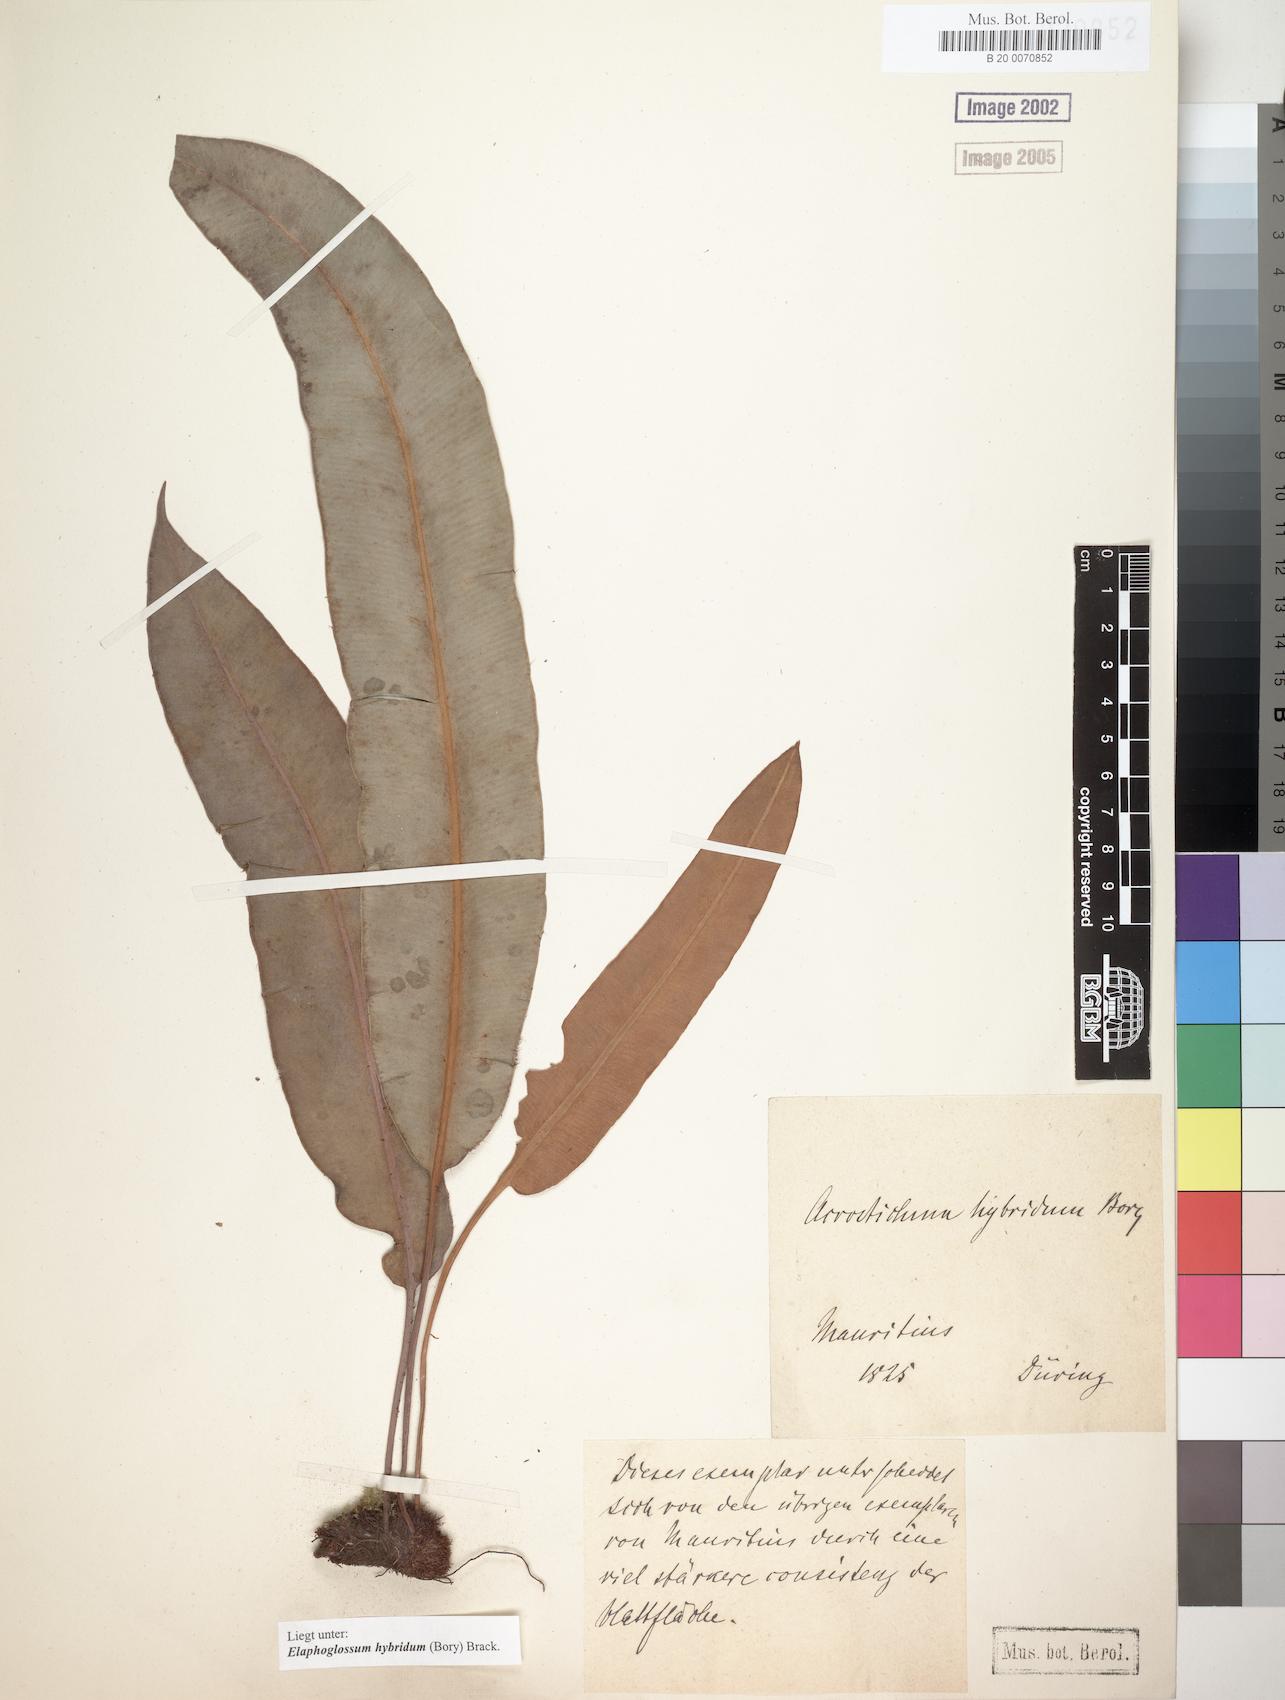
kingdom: Plantae
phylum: Tracheophyta
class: Polypodiopsida
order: Polypodiales
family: Dryopteridaceae
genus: Elaphoglossum
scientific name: Elaphoglossum hybridum
